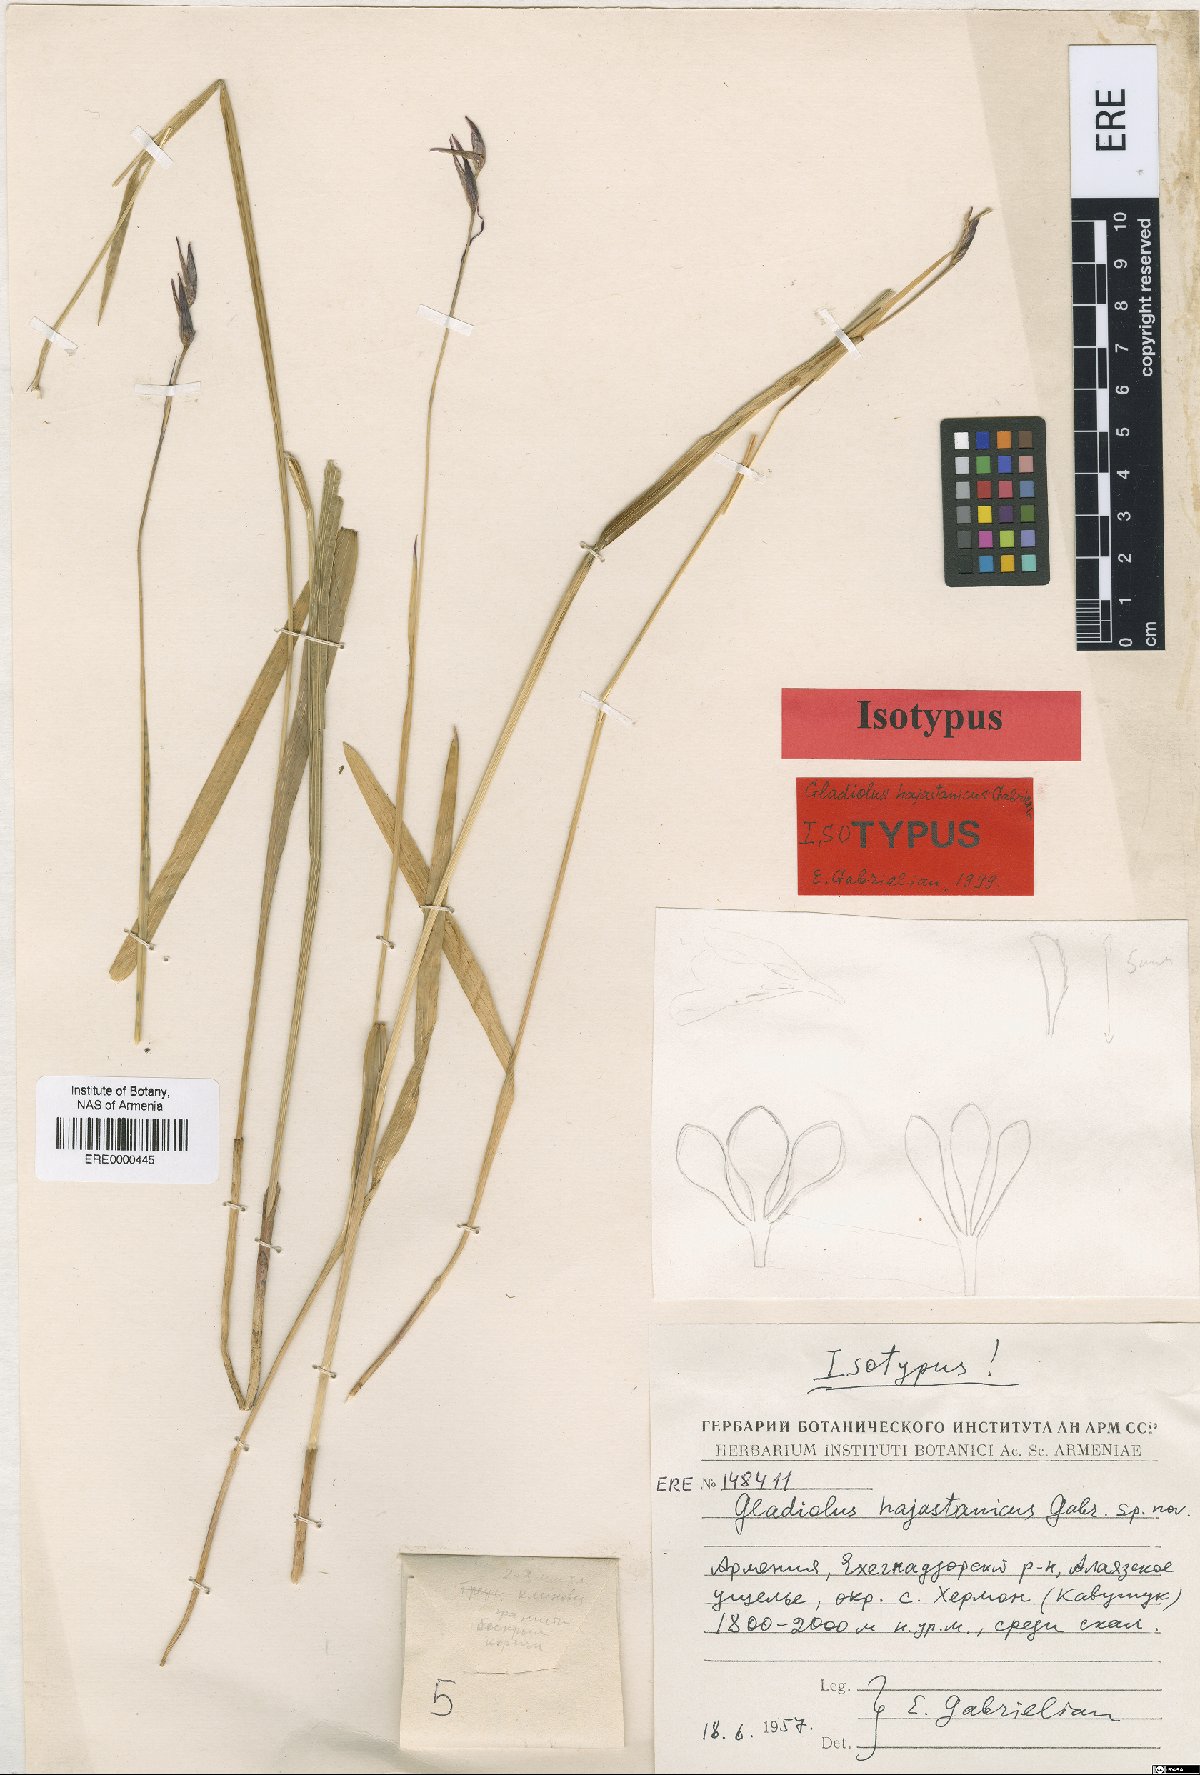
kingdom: Plantae
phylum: Tracheophyta
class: Liliopsida
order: Asparagales
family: Iridaceae
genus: Gladiolus
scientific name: Gladiolus hajastanicus
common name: Armenian sword-lily
